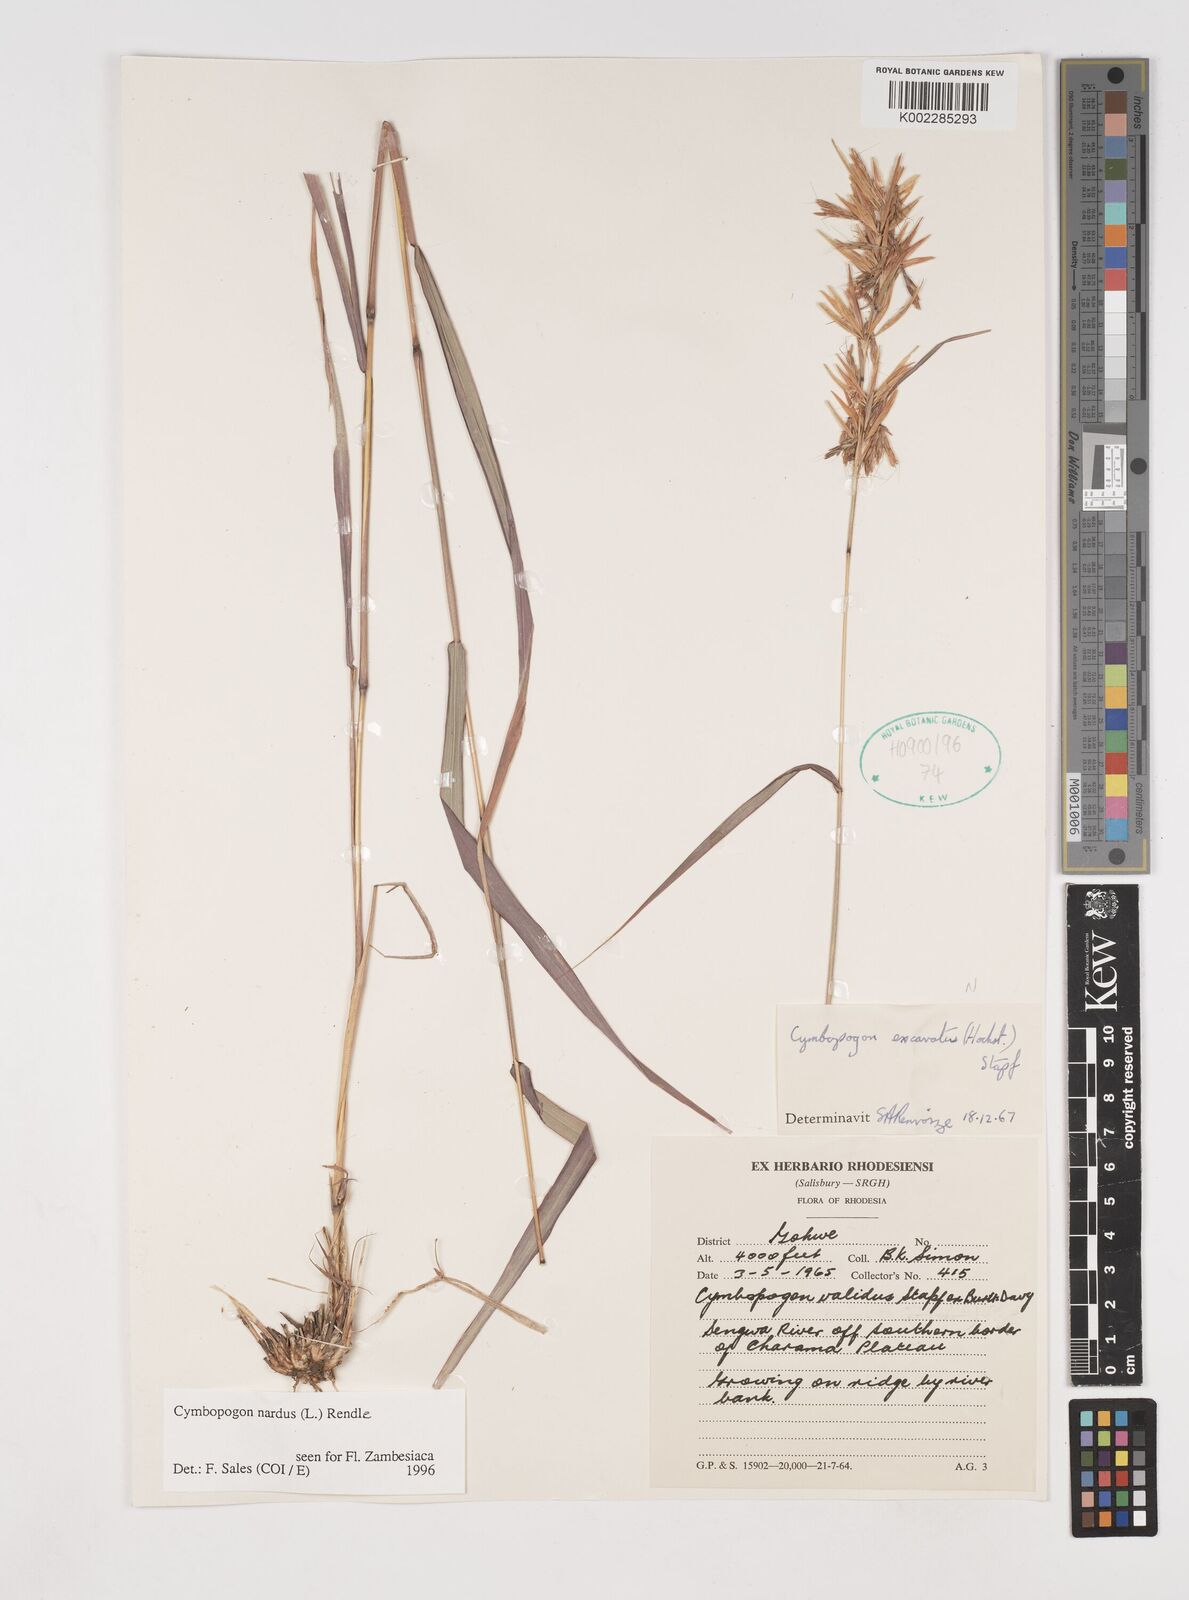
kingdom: Plantae
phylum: Tracheophyta
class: Liliopsida
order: Poales
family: Poaceae
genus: Cymbopogon
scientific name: Cymbopogon nardus
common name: Giant turpentine grass
